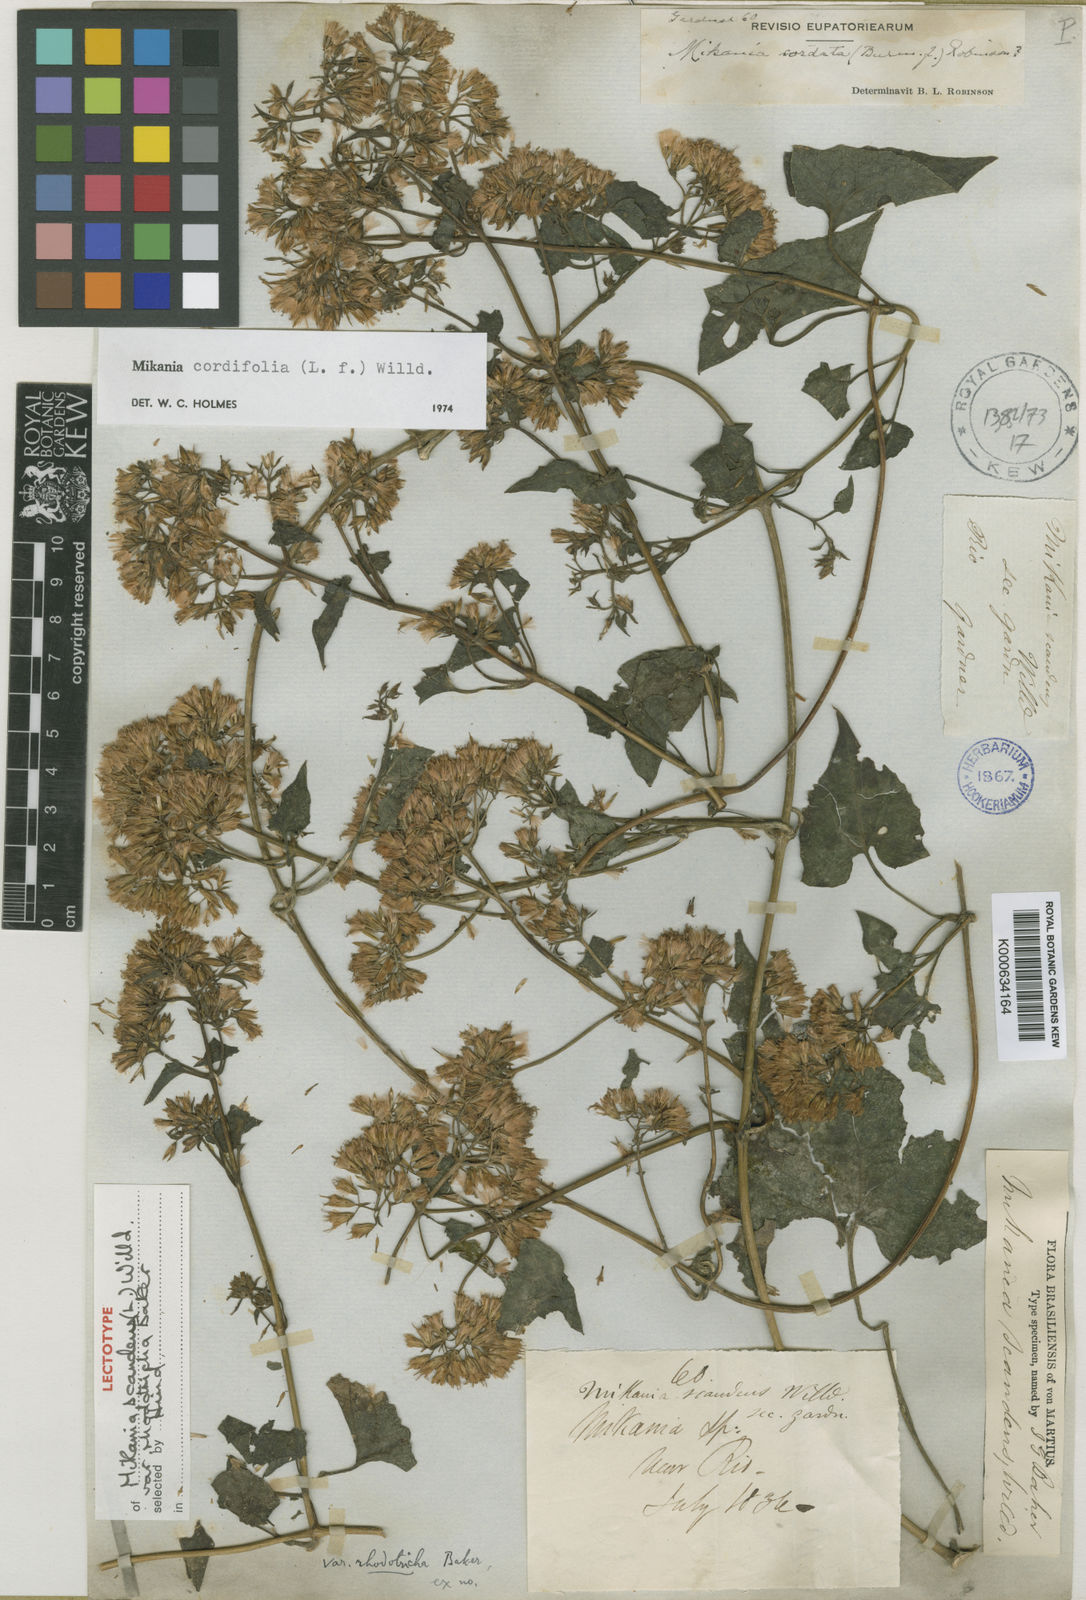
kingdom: Plantae
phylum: Tracheophyta
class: Magnoliopsida
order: Asterales
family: Asteraceae
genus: Mikania
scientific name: Mikania cordifolia
